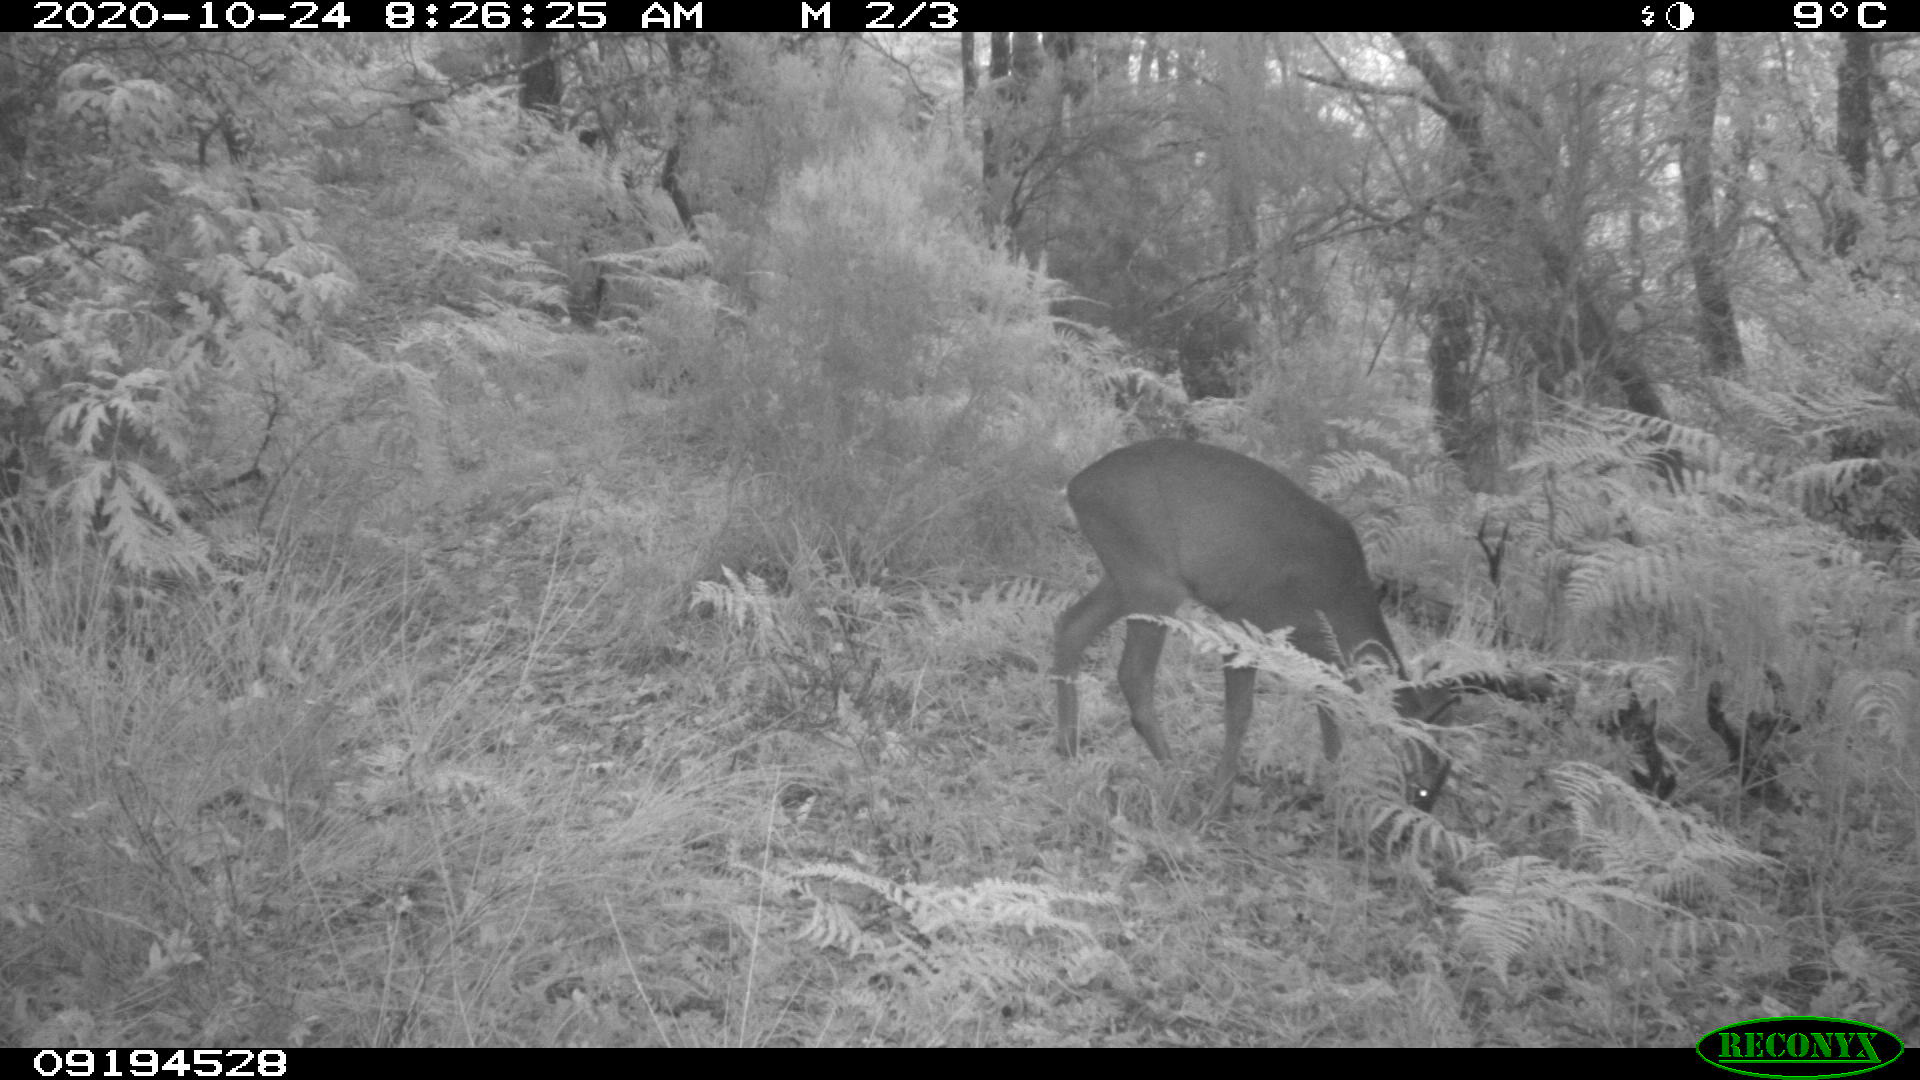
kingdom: Animalia
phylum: Chordata
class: Mammalia
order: Artiodactyla
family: Cervidae
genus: Capreolus
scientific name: Capreolus capreolus
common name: Western roe deer
